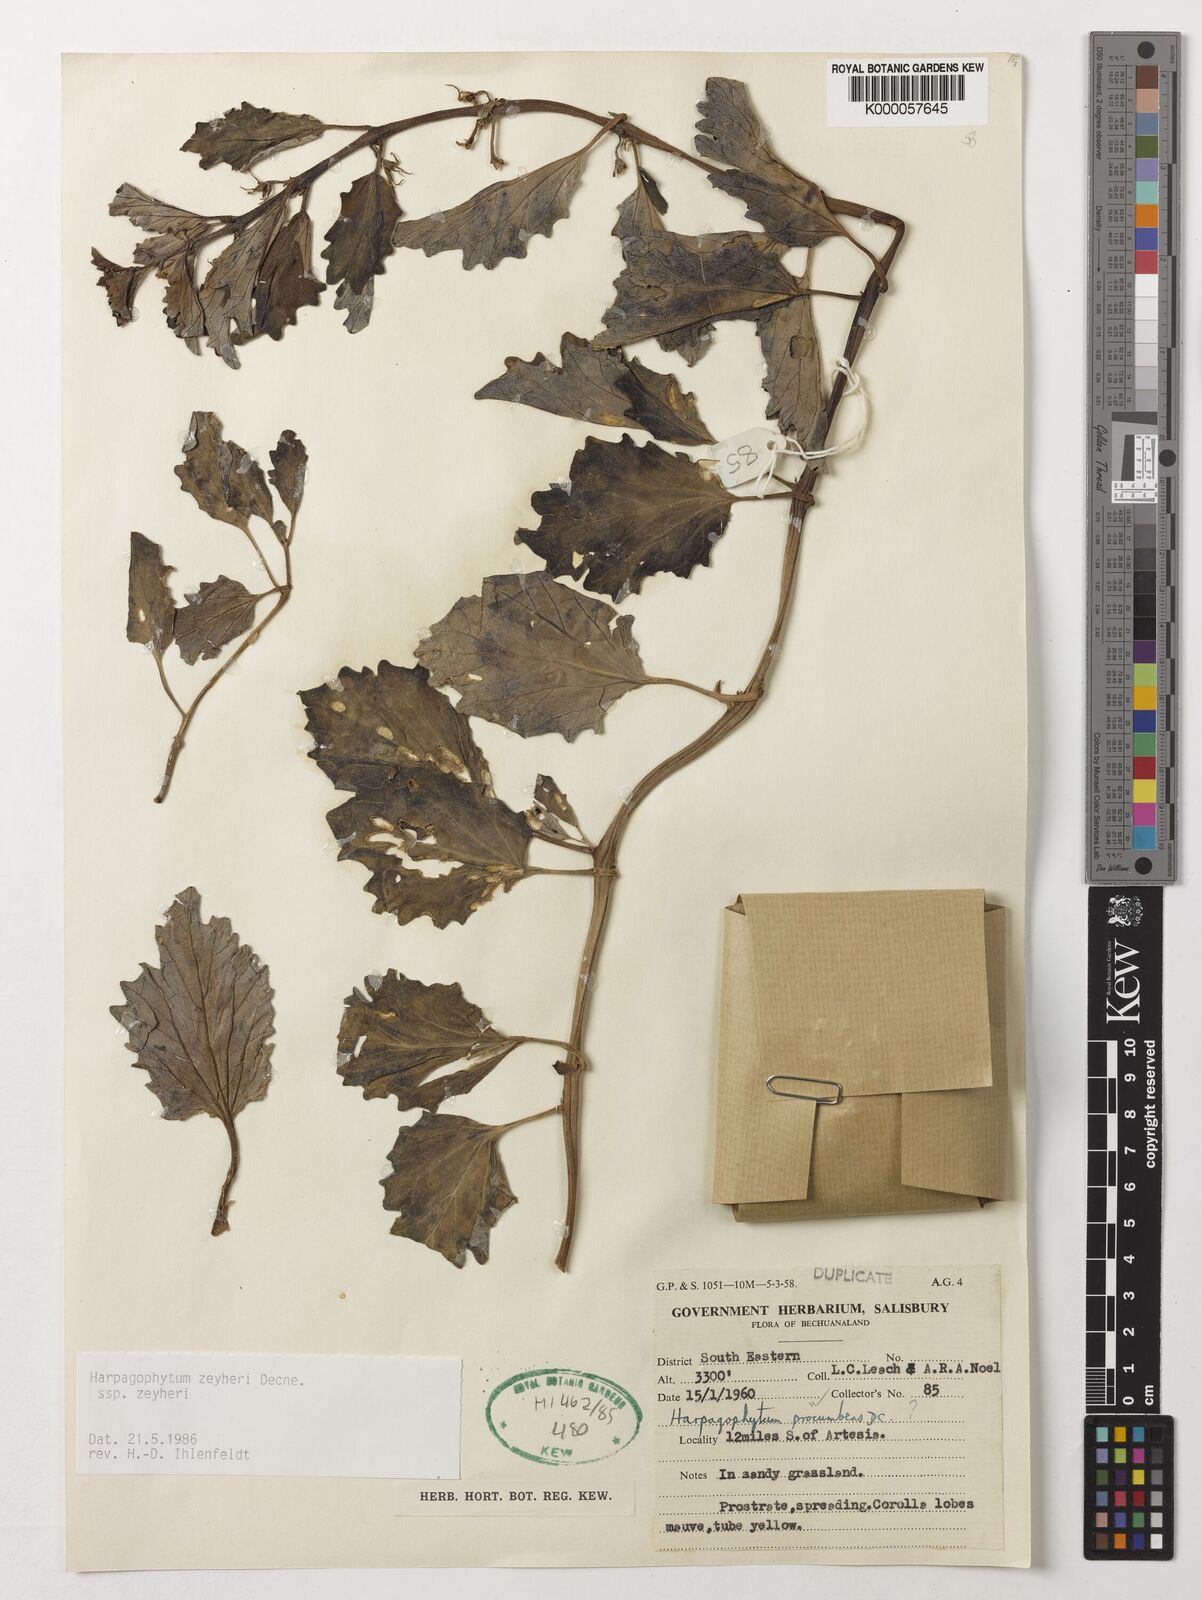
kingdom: Plantae
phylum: Tracheophyta
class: Magnoliopsida
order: Lamiales
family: Pedaliaceae
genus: Harpagophytum
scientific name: Harpagophytum zeyheri
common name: Grappleplant
